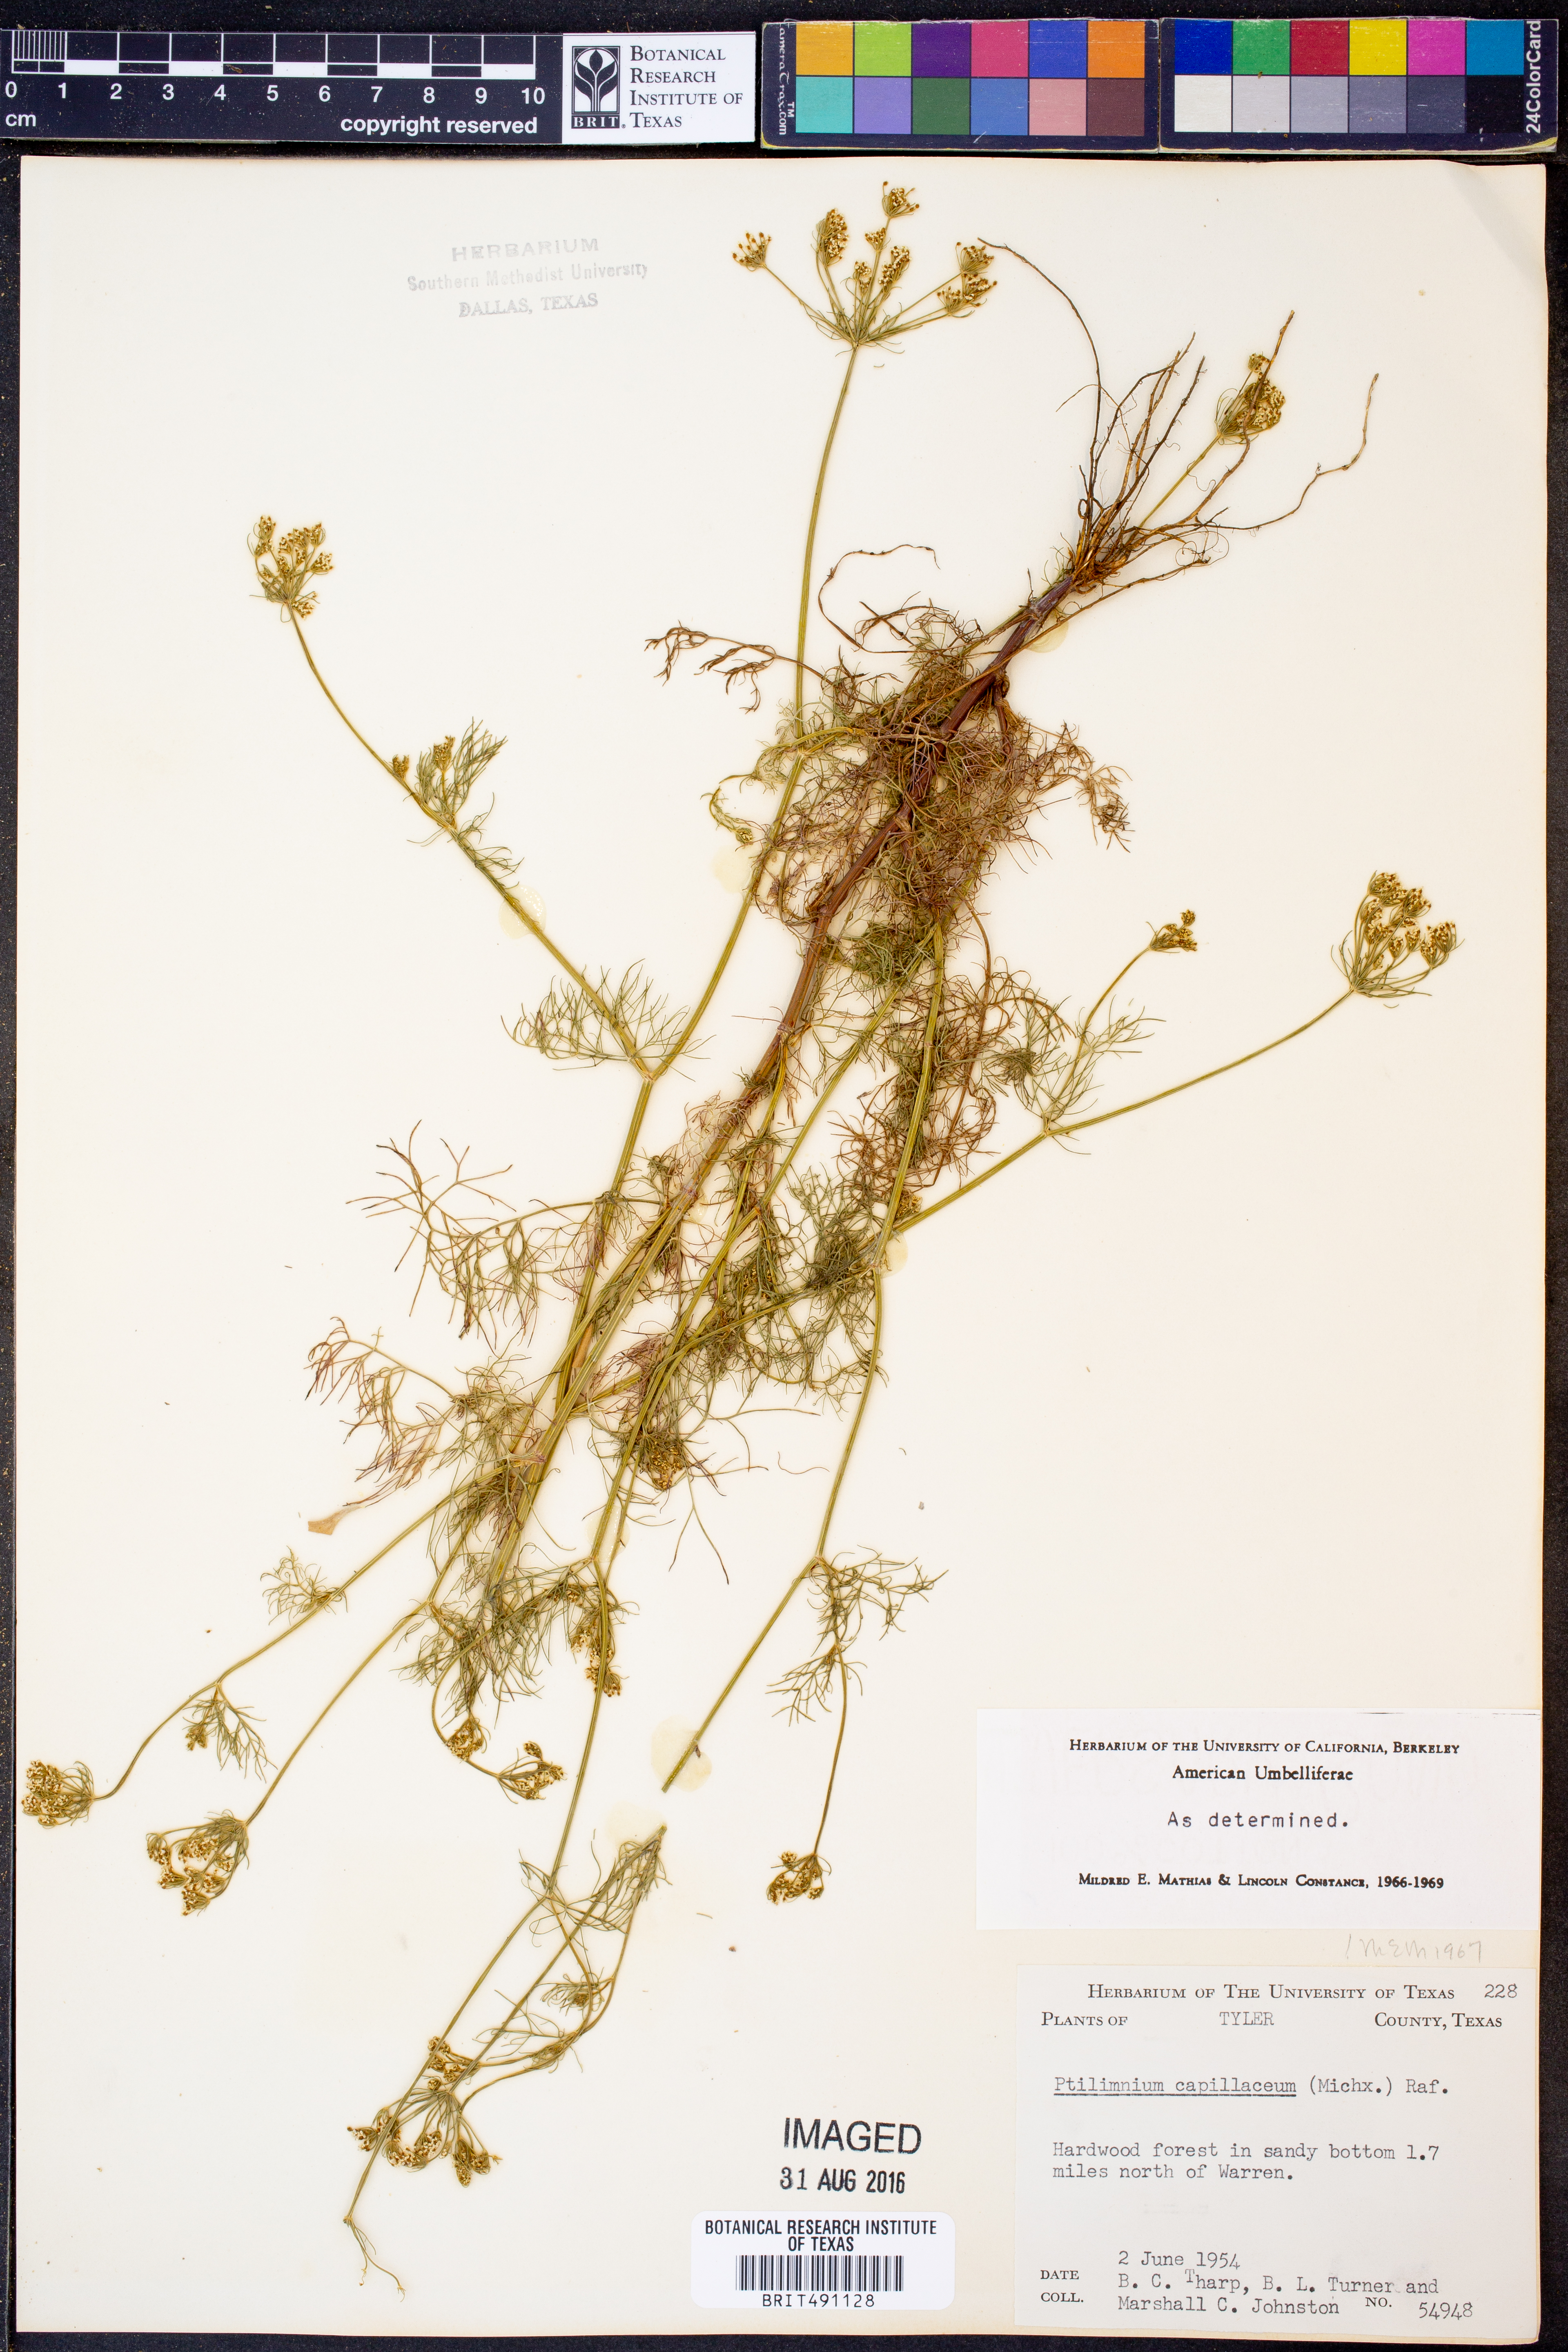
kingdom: Plantae
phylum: Tracheophyta
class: Magnoliopsida
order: Apiales
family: Apiaceae
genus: Ptilimnium
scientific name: Ptilimnium capillaceum
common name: Herbwilliam
